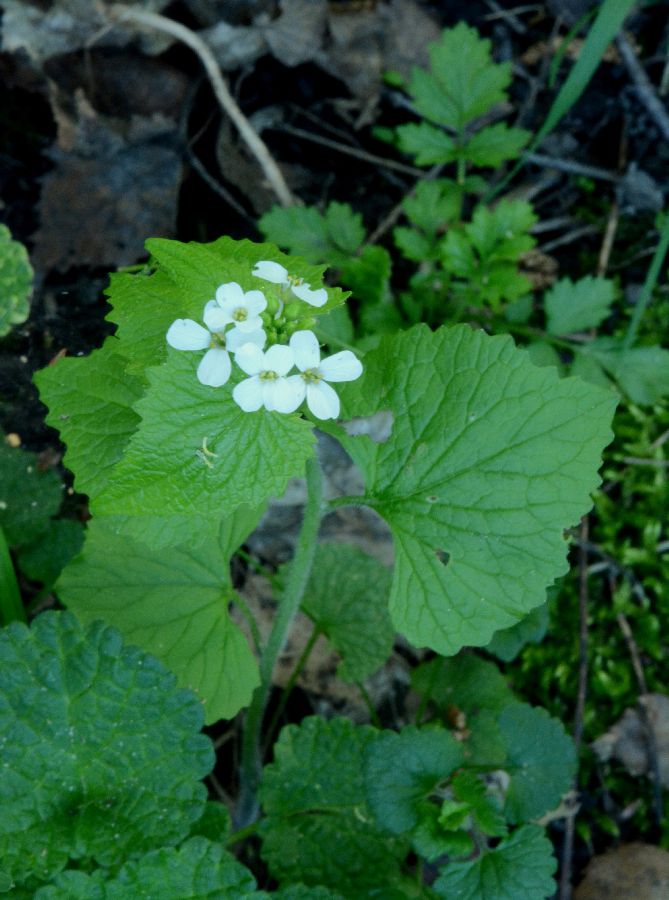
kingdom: Plantae
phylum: Tracheophyta
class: Magnoliopsida
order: Brassicales
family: Brassicaceae
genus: Alliaria
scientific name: Alliaria petiolata
